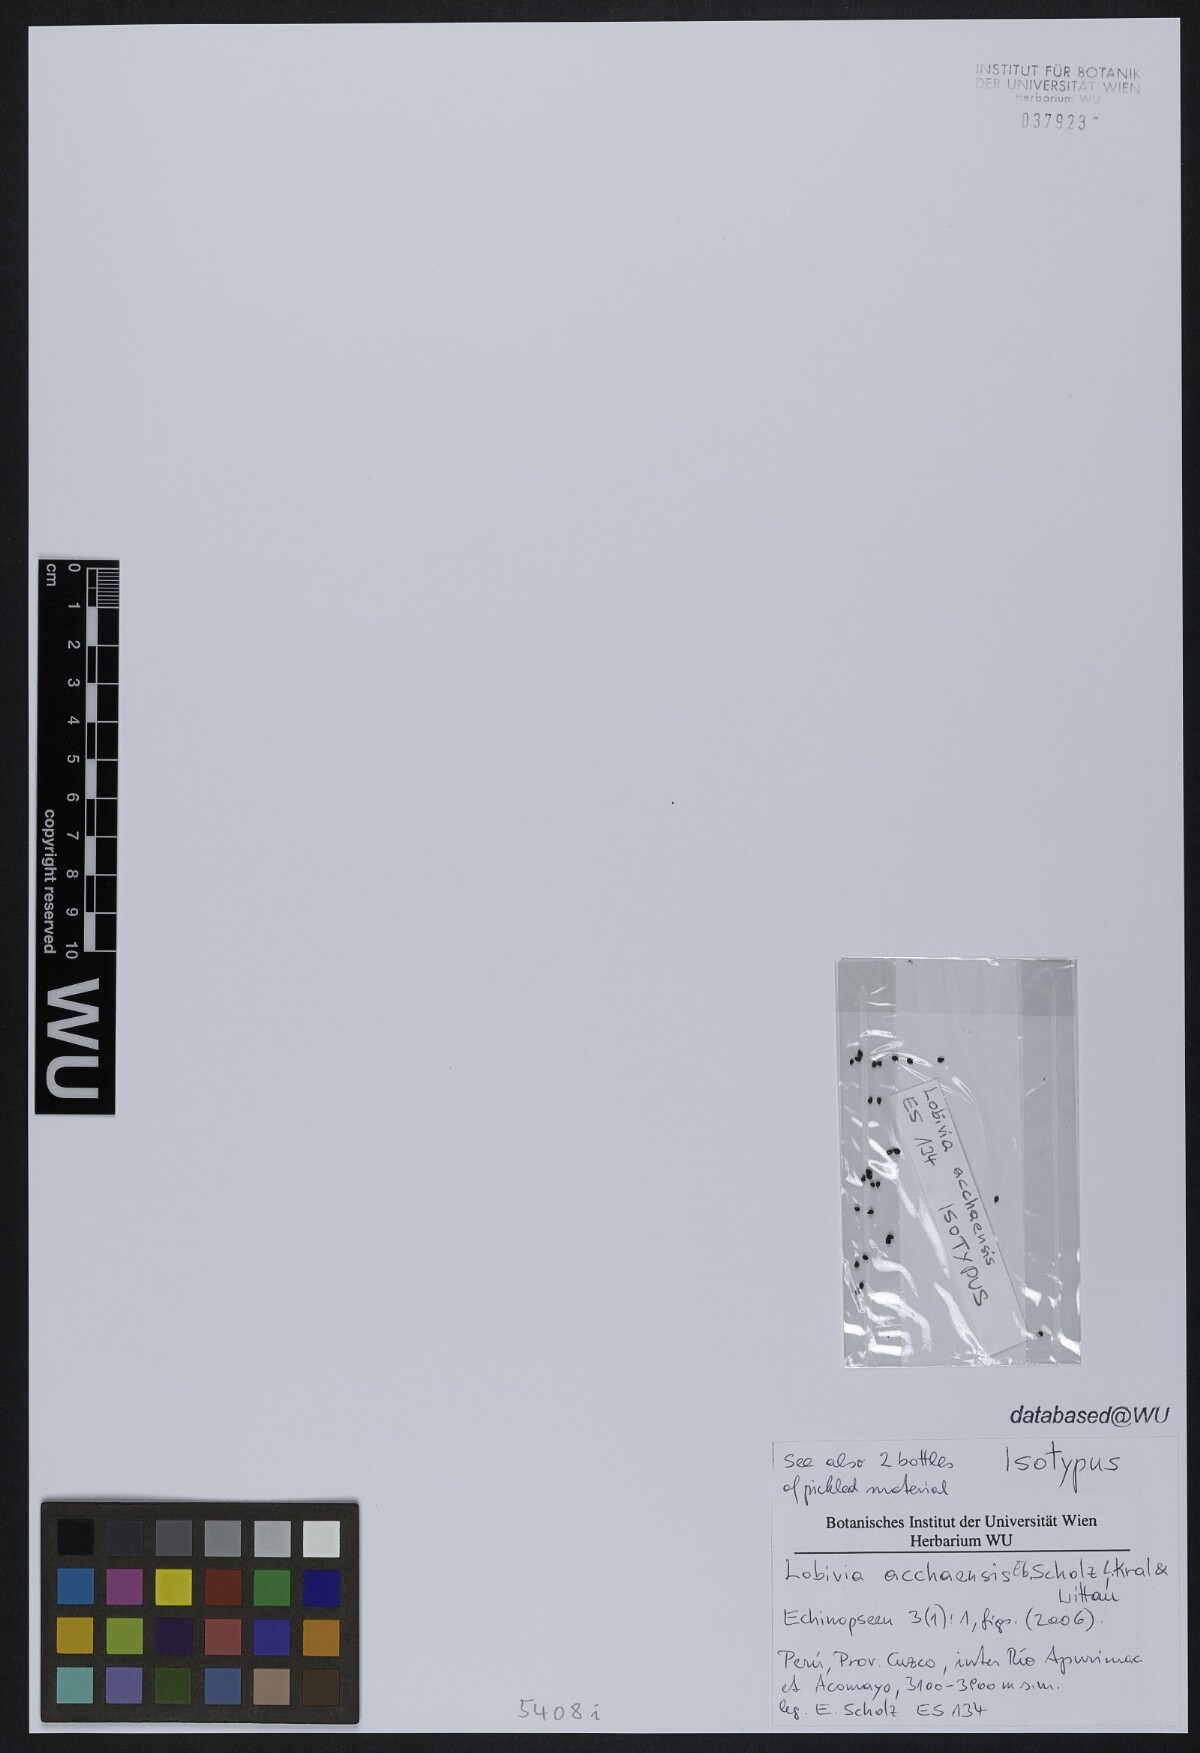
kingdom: Plantae
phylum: Tracheophyta
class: Magnoliopsida
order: Caryophyllales
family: Cactaceae
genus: Lobivia
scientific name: Lobivia acchaensis
